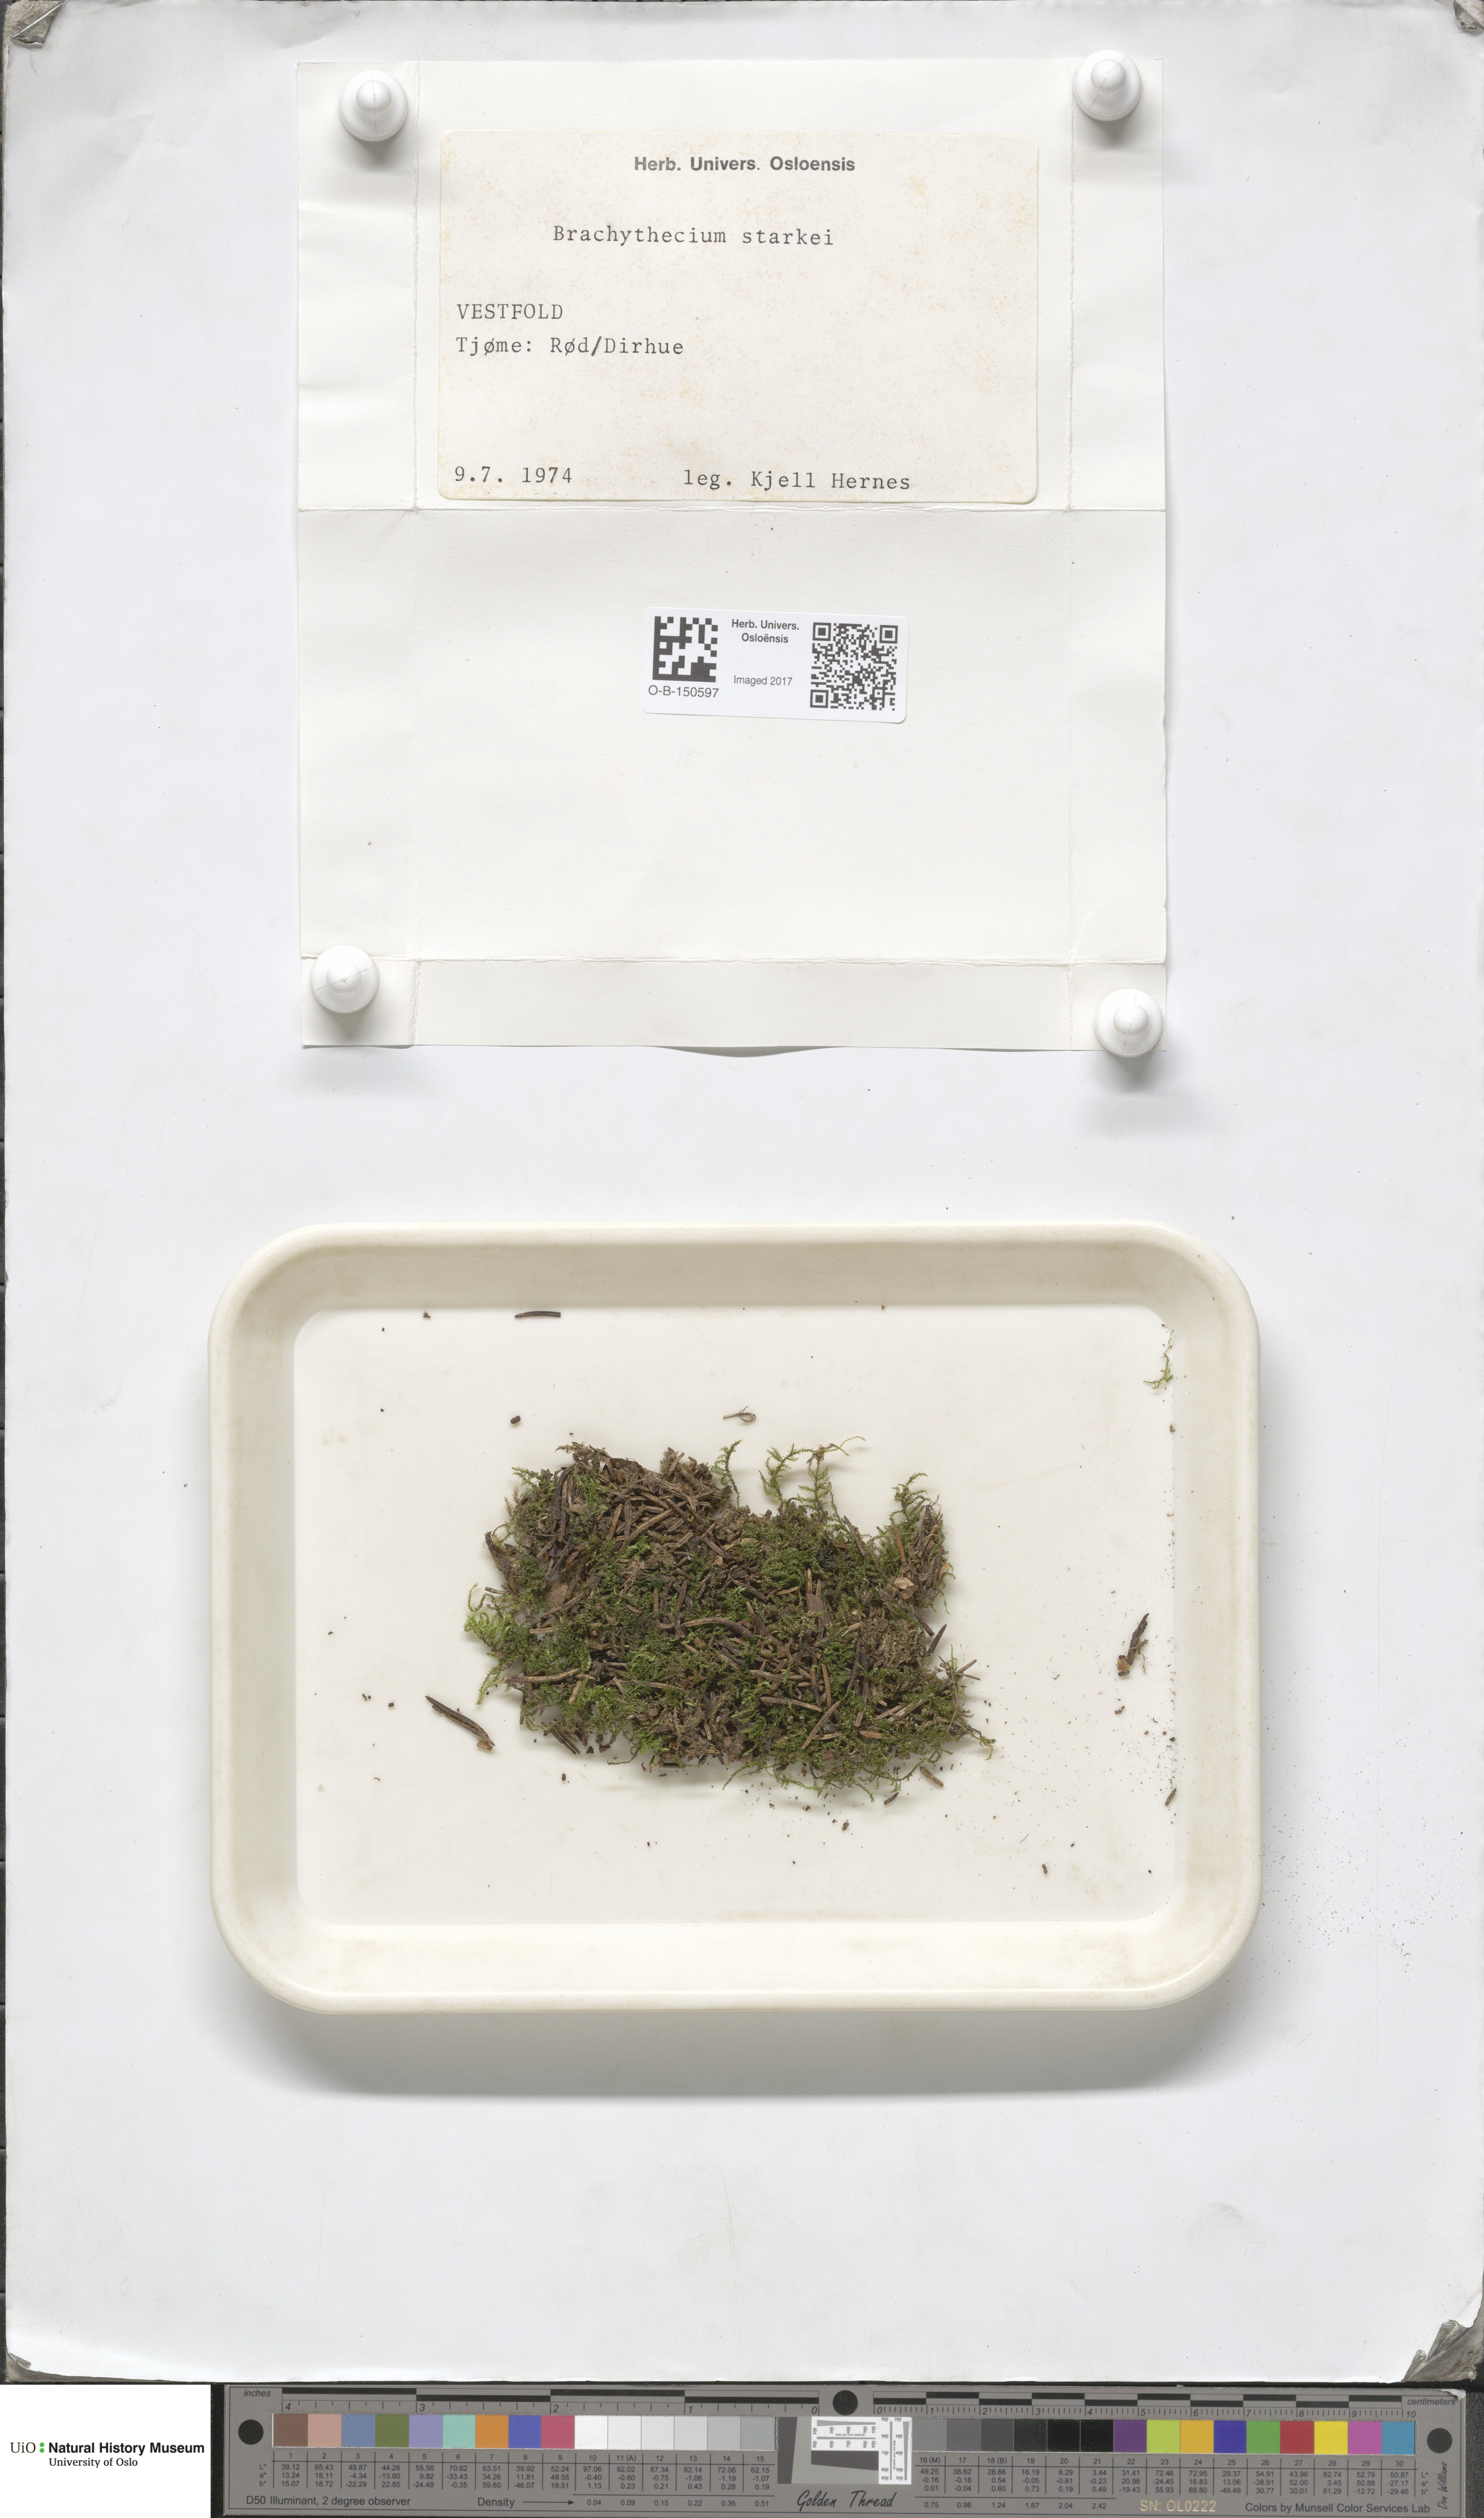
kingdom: Plantae
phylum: Bryophyta
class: Bryopsida
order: Hypnales
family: Brachytheciaceae
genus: Sciuro-hypnum
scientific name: Sciuro-hypnum starkei
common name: Starke's feather-moss
